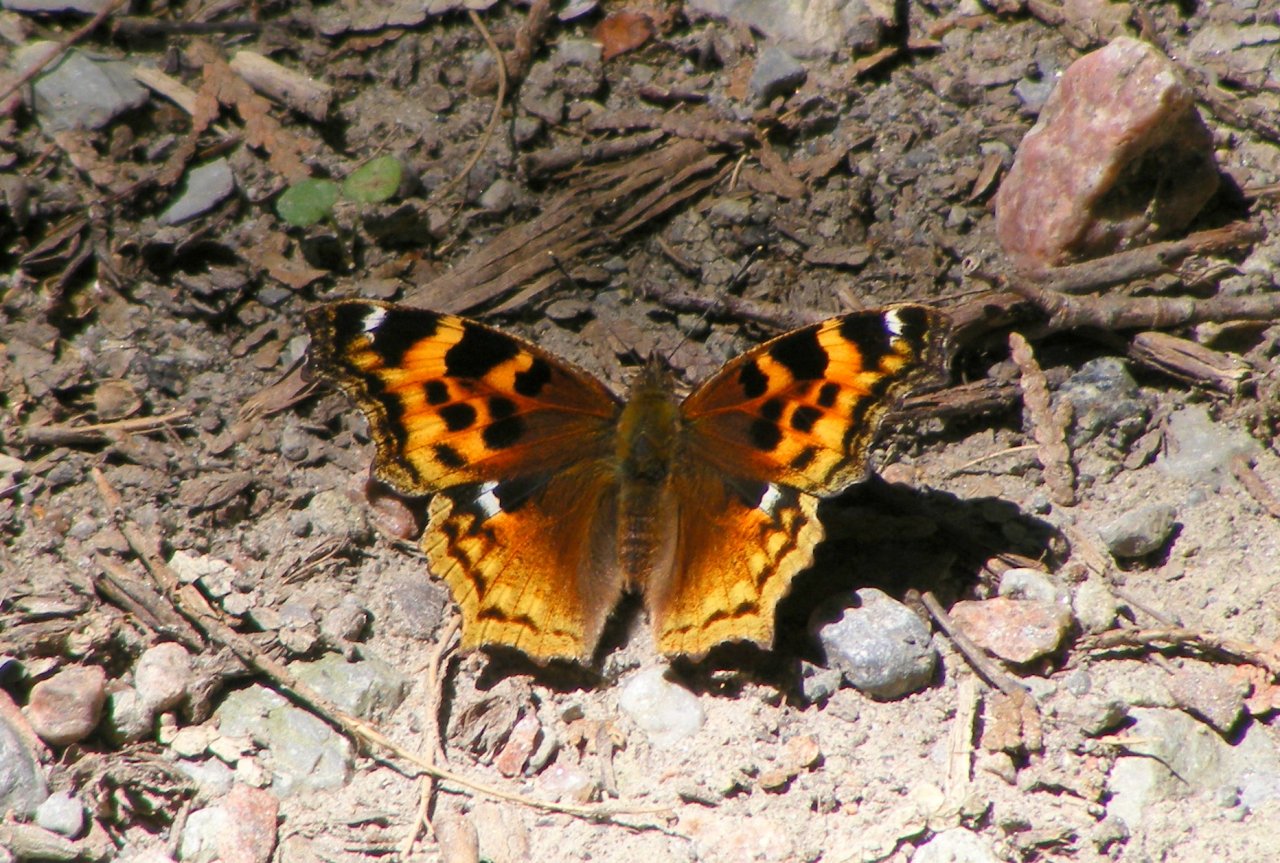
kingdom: Animalia
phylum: Arthropoda
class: Insecta
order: Lepidoptera
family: Nymphalidae
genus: Polygonia
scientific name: Polygonia vaualbum
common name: Compton Tortoiseshell
